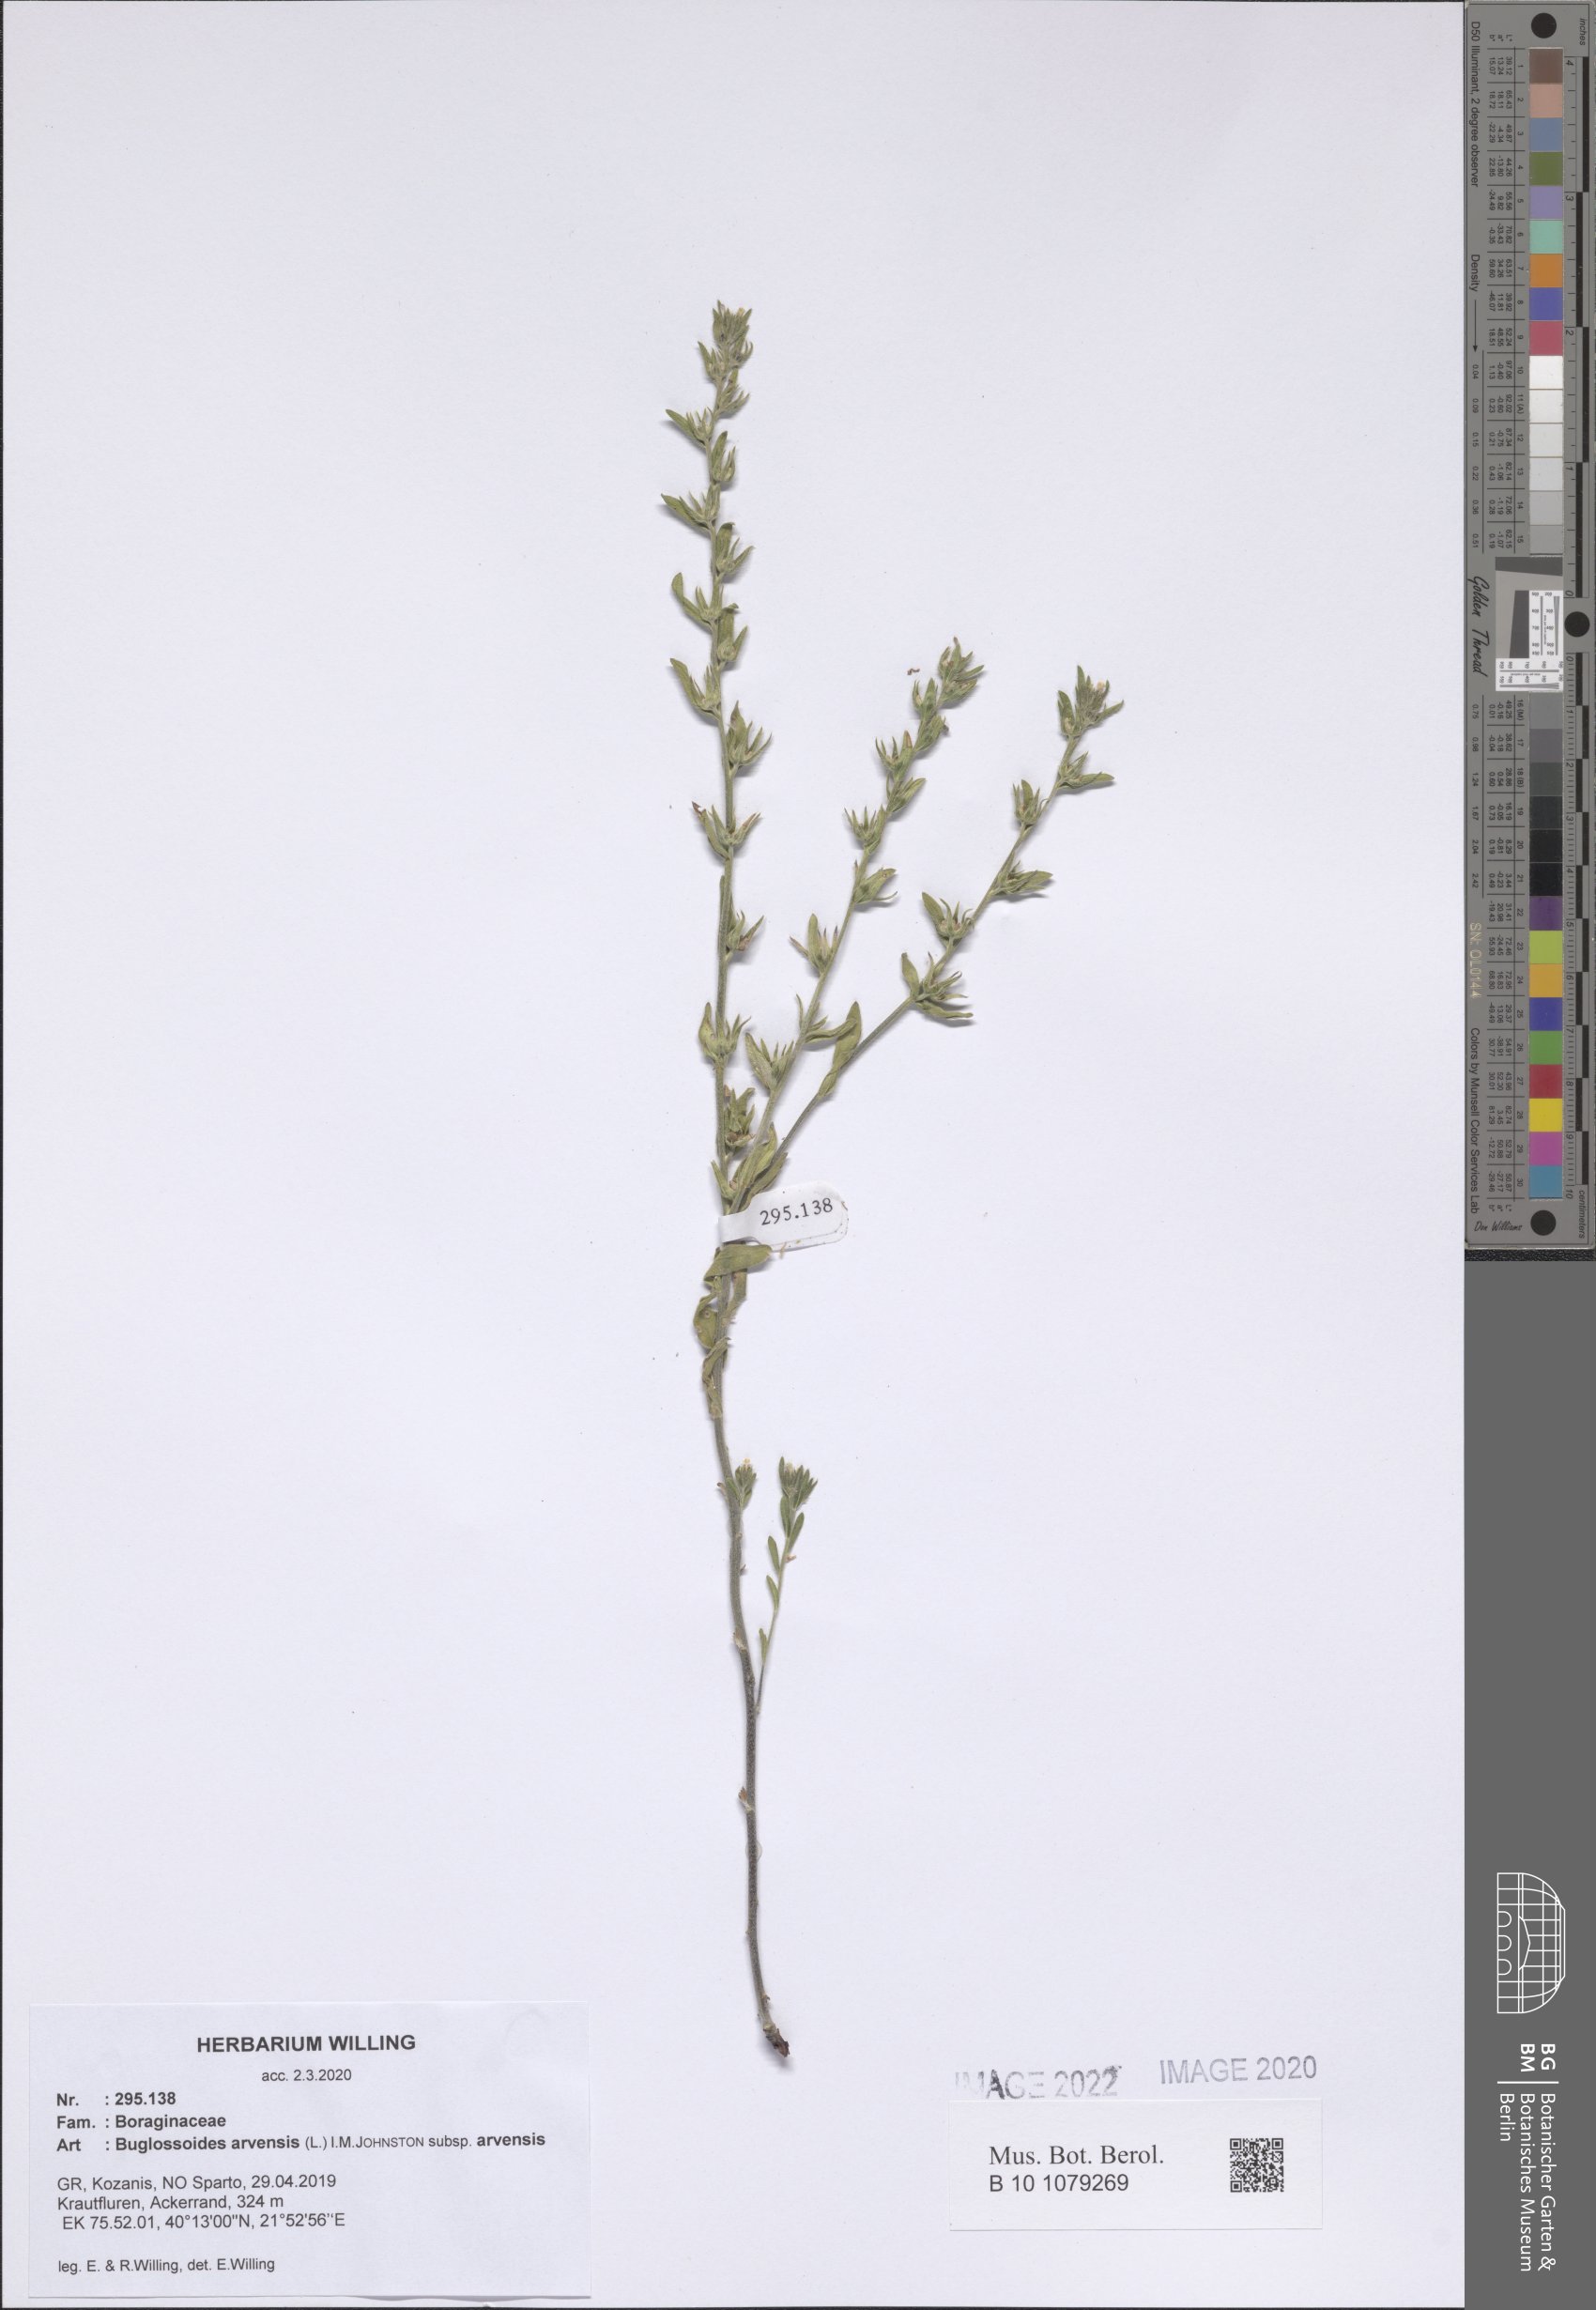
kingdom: Plantae
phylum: Tracheophyta
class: Magnoliopsida
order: Boraginales
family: Boraginaceae
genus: Buglossoides
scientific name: Buglossoides arvensis
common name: Corn gromwell
